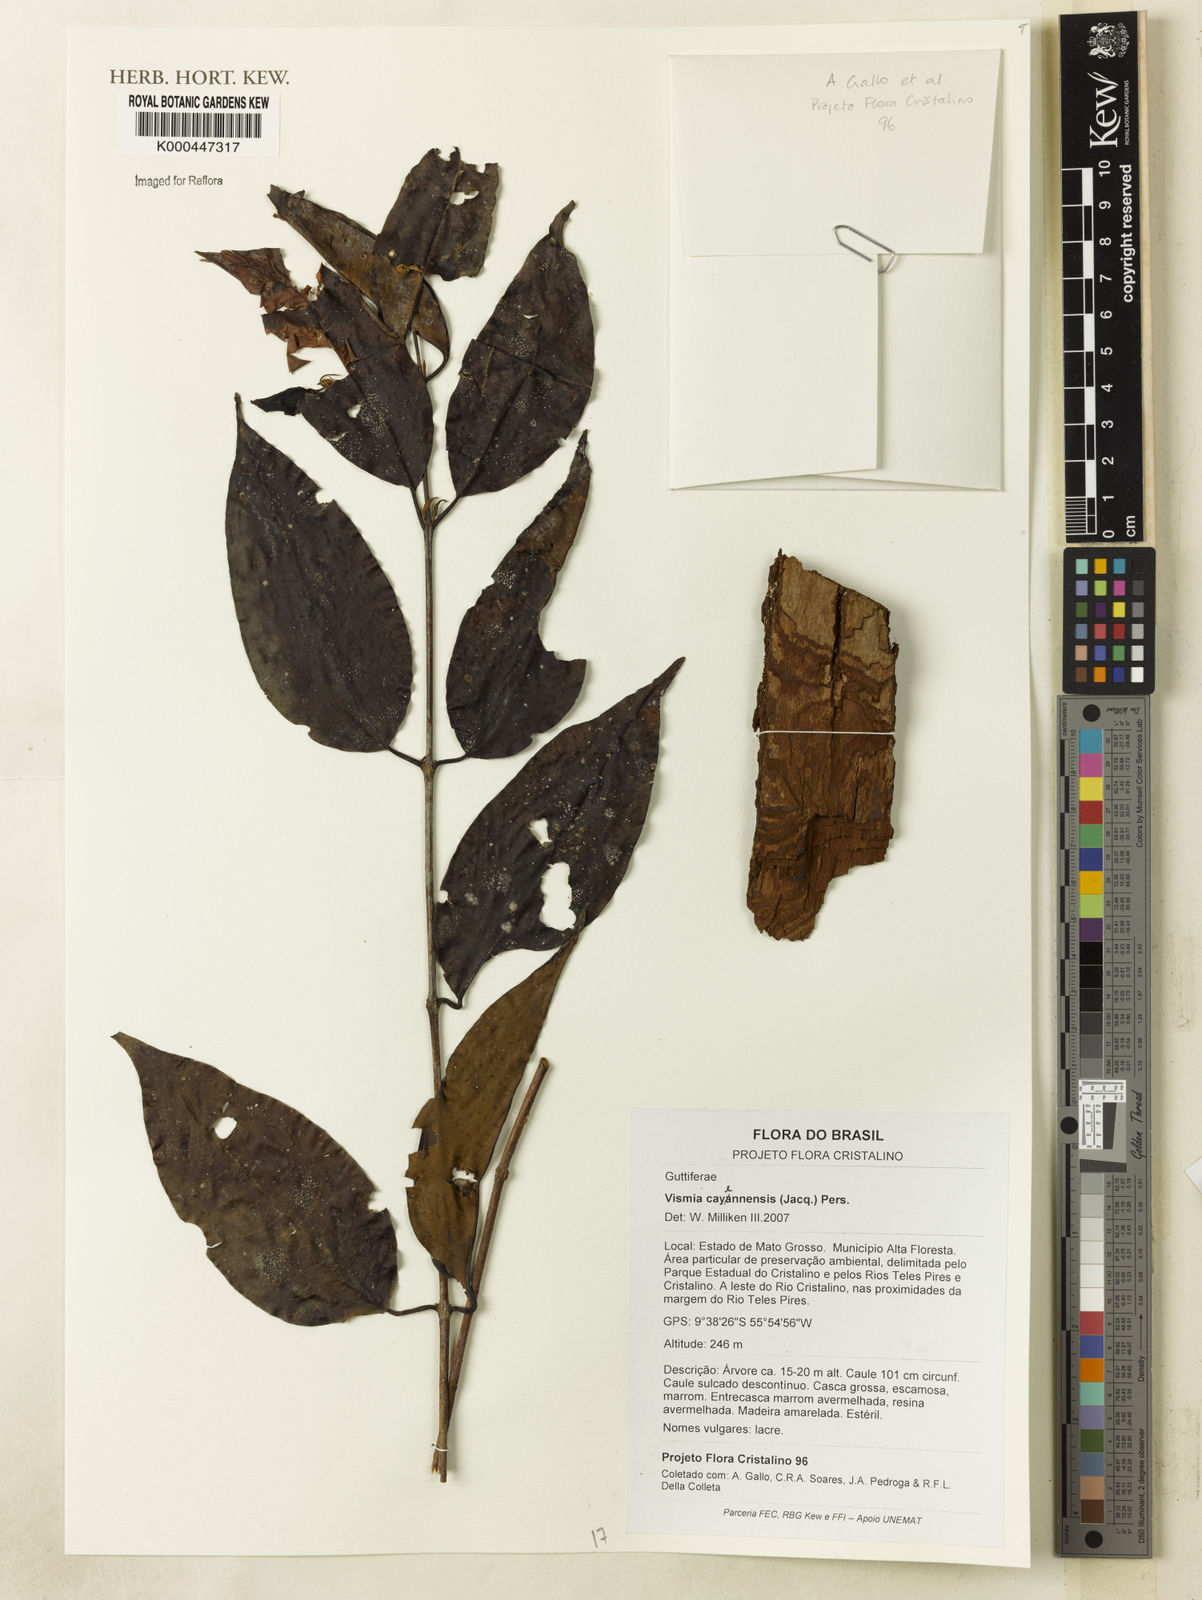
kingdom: Plantae
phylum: Tracheophyta
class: Magnoliopsida
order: Malpighiales
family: Hypericaceae
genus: Vismia
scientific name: Vismia cayennensis
